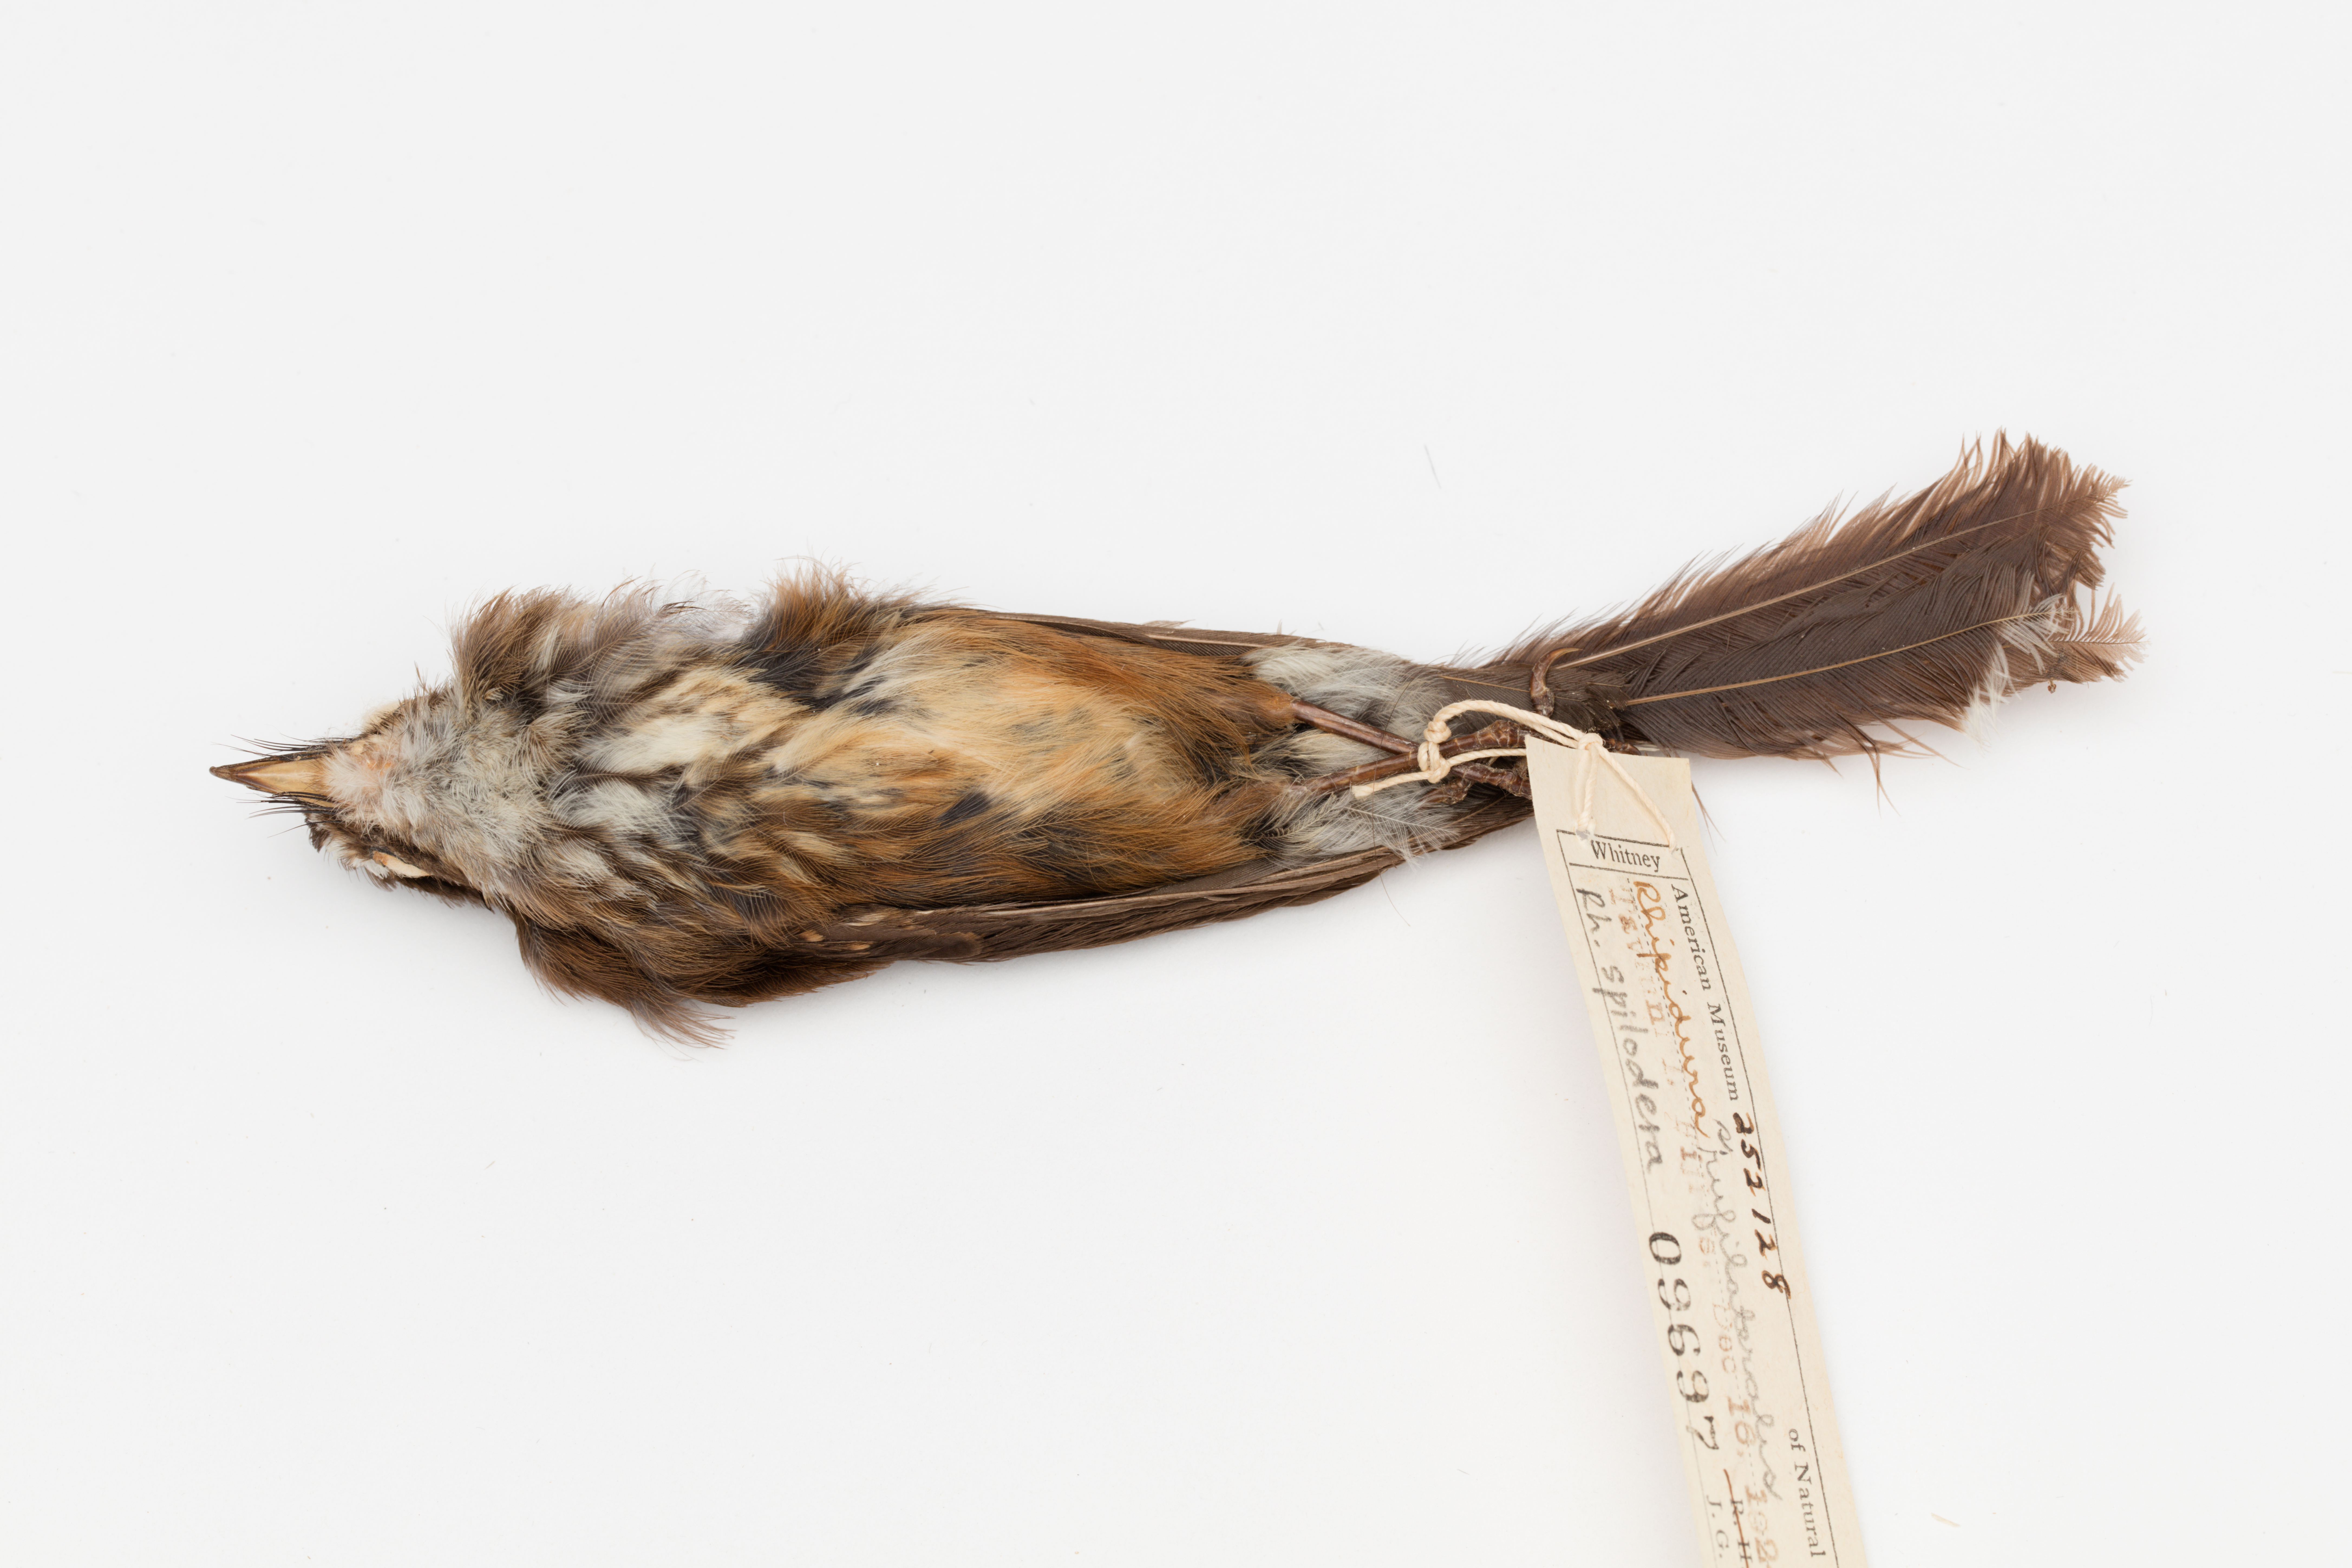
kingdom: Animalia
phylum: Chordata
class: Aves
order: Passeriformes
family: Rhipiduridae
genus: Rhipidura
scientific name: Rhipidura verreauxi
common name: Streaked fantail
